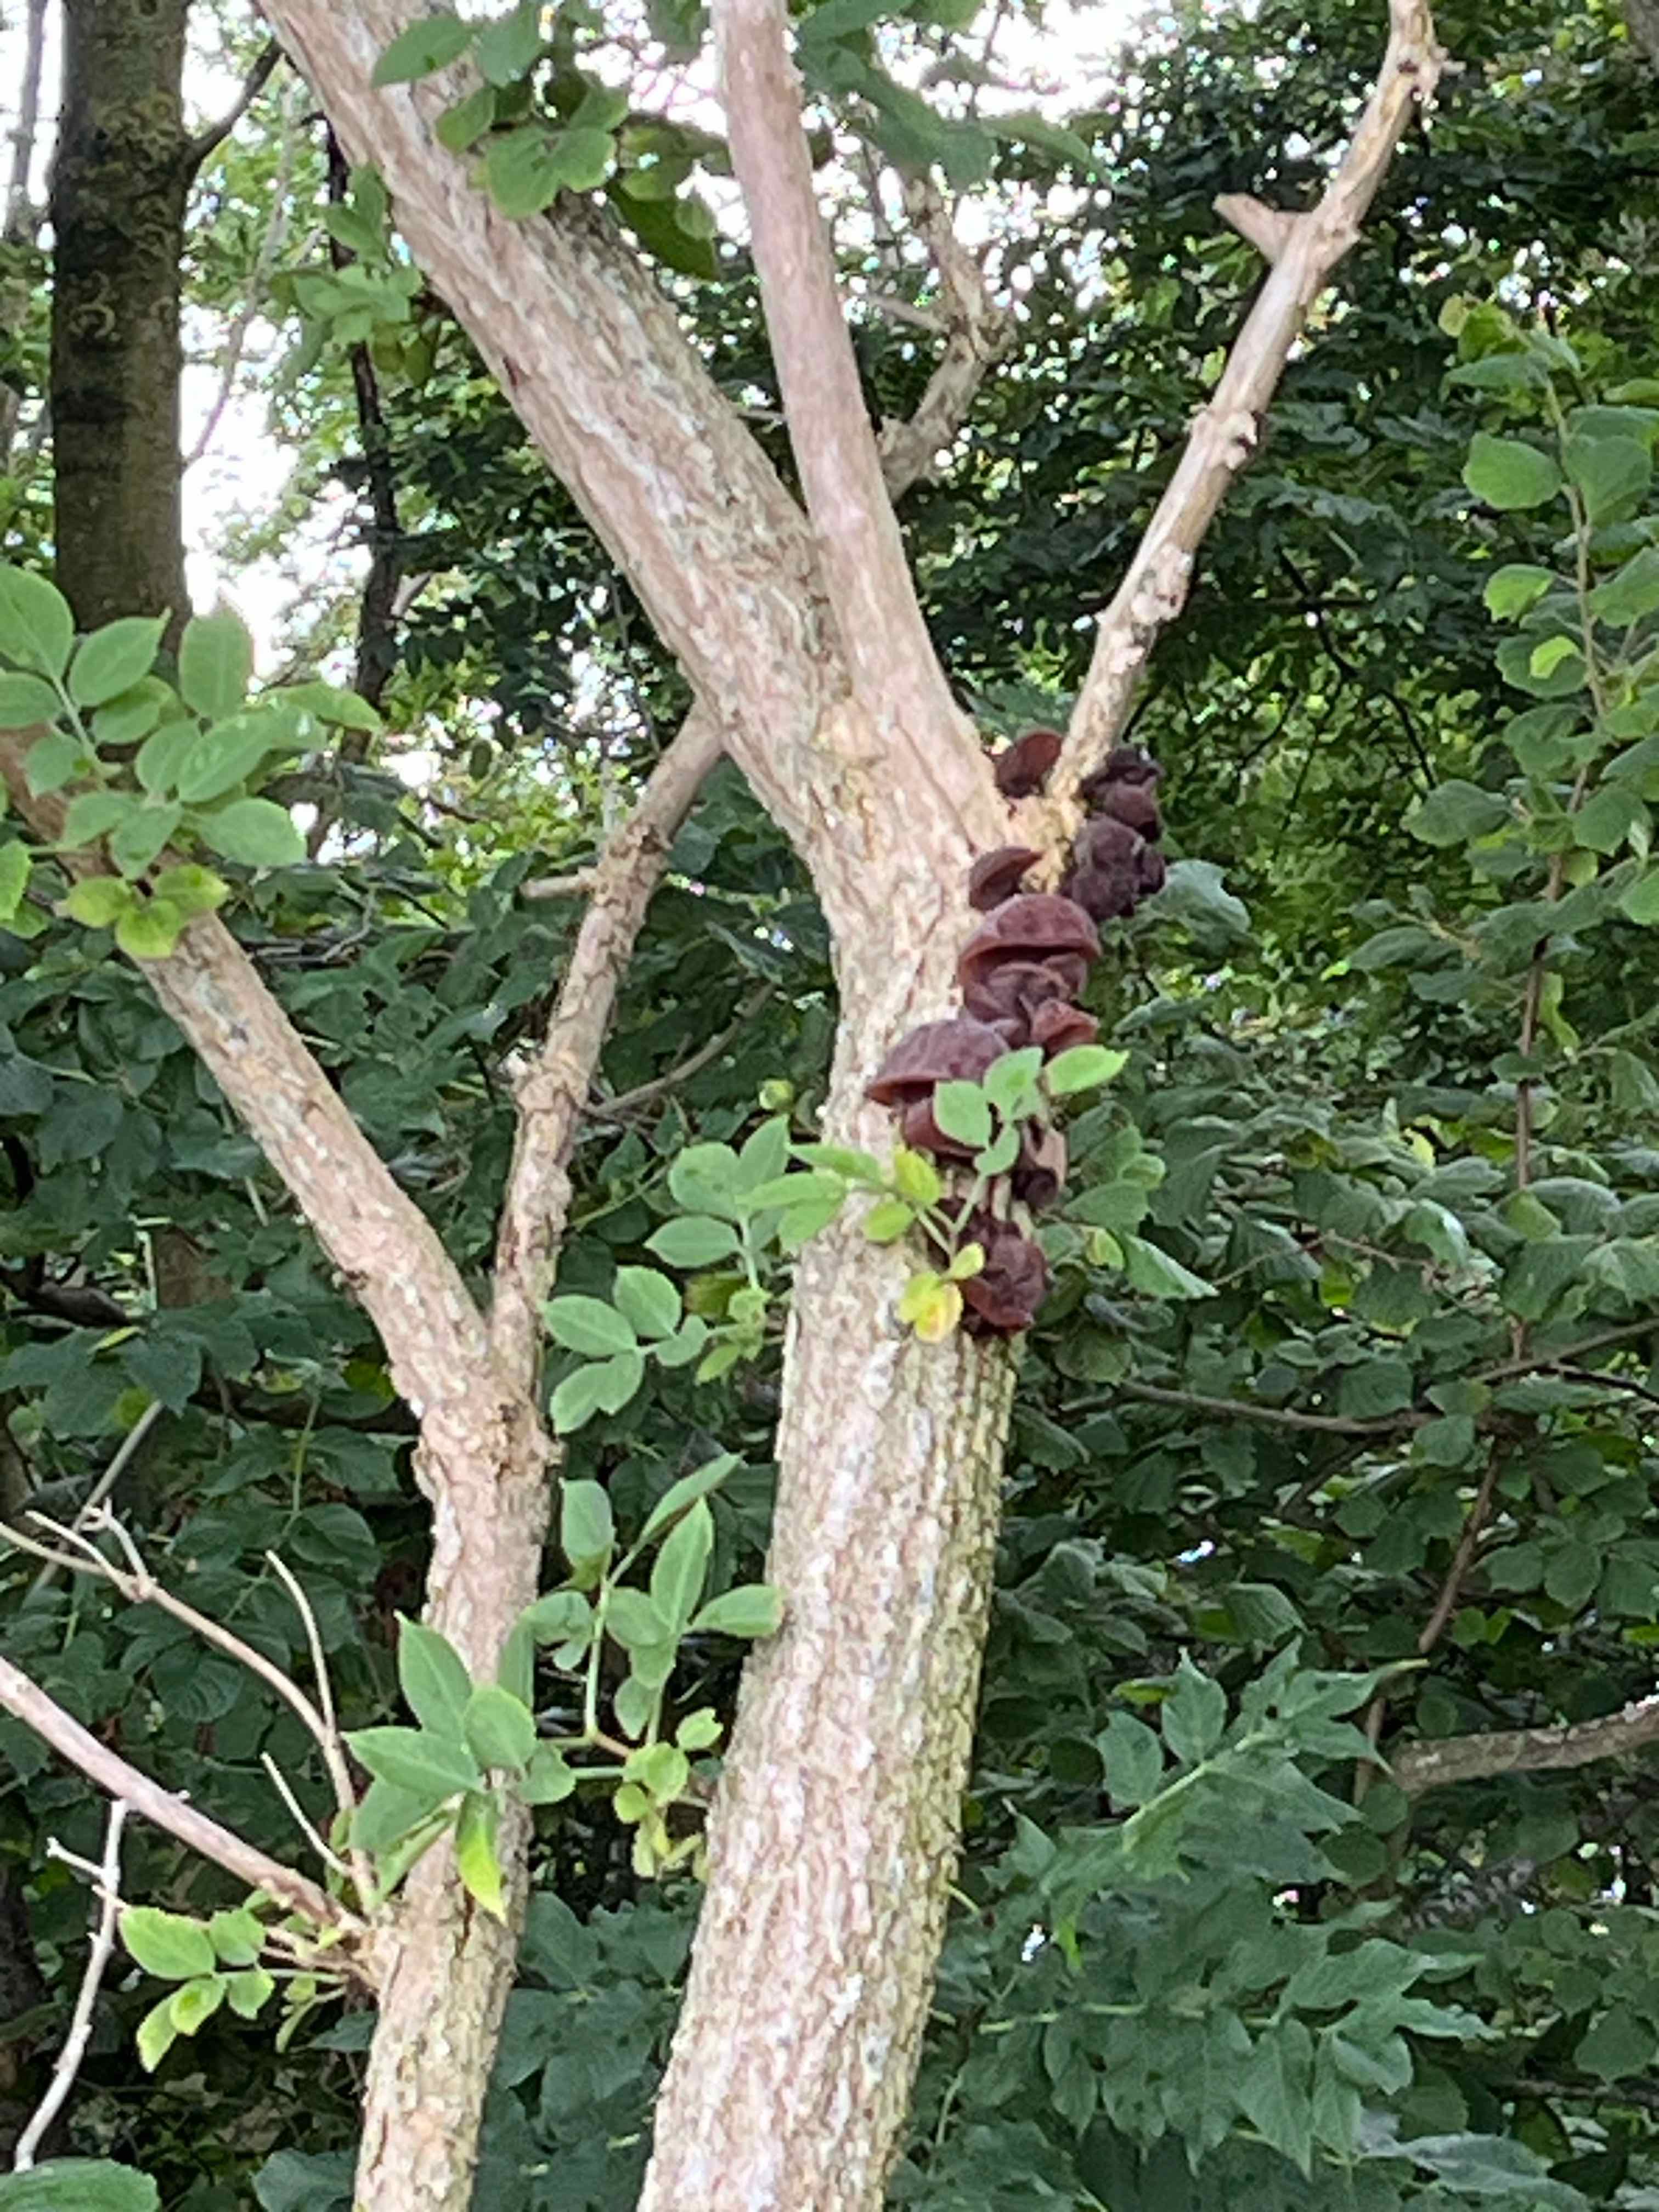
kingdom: Fungi
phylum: Basidiomycota
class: Agaricomycetes
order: Auriculariales
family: Auriculariaceae
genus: Auricularia
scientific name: Auricularia auricula-judae
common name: almindelig judasøre
